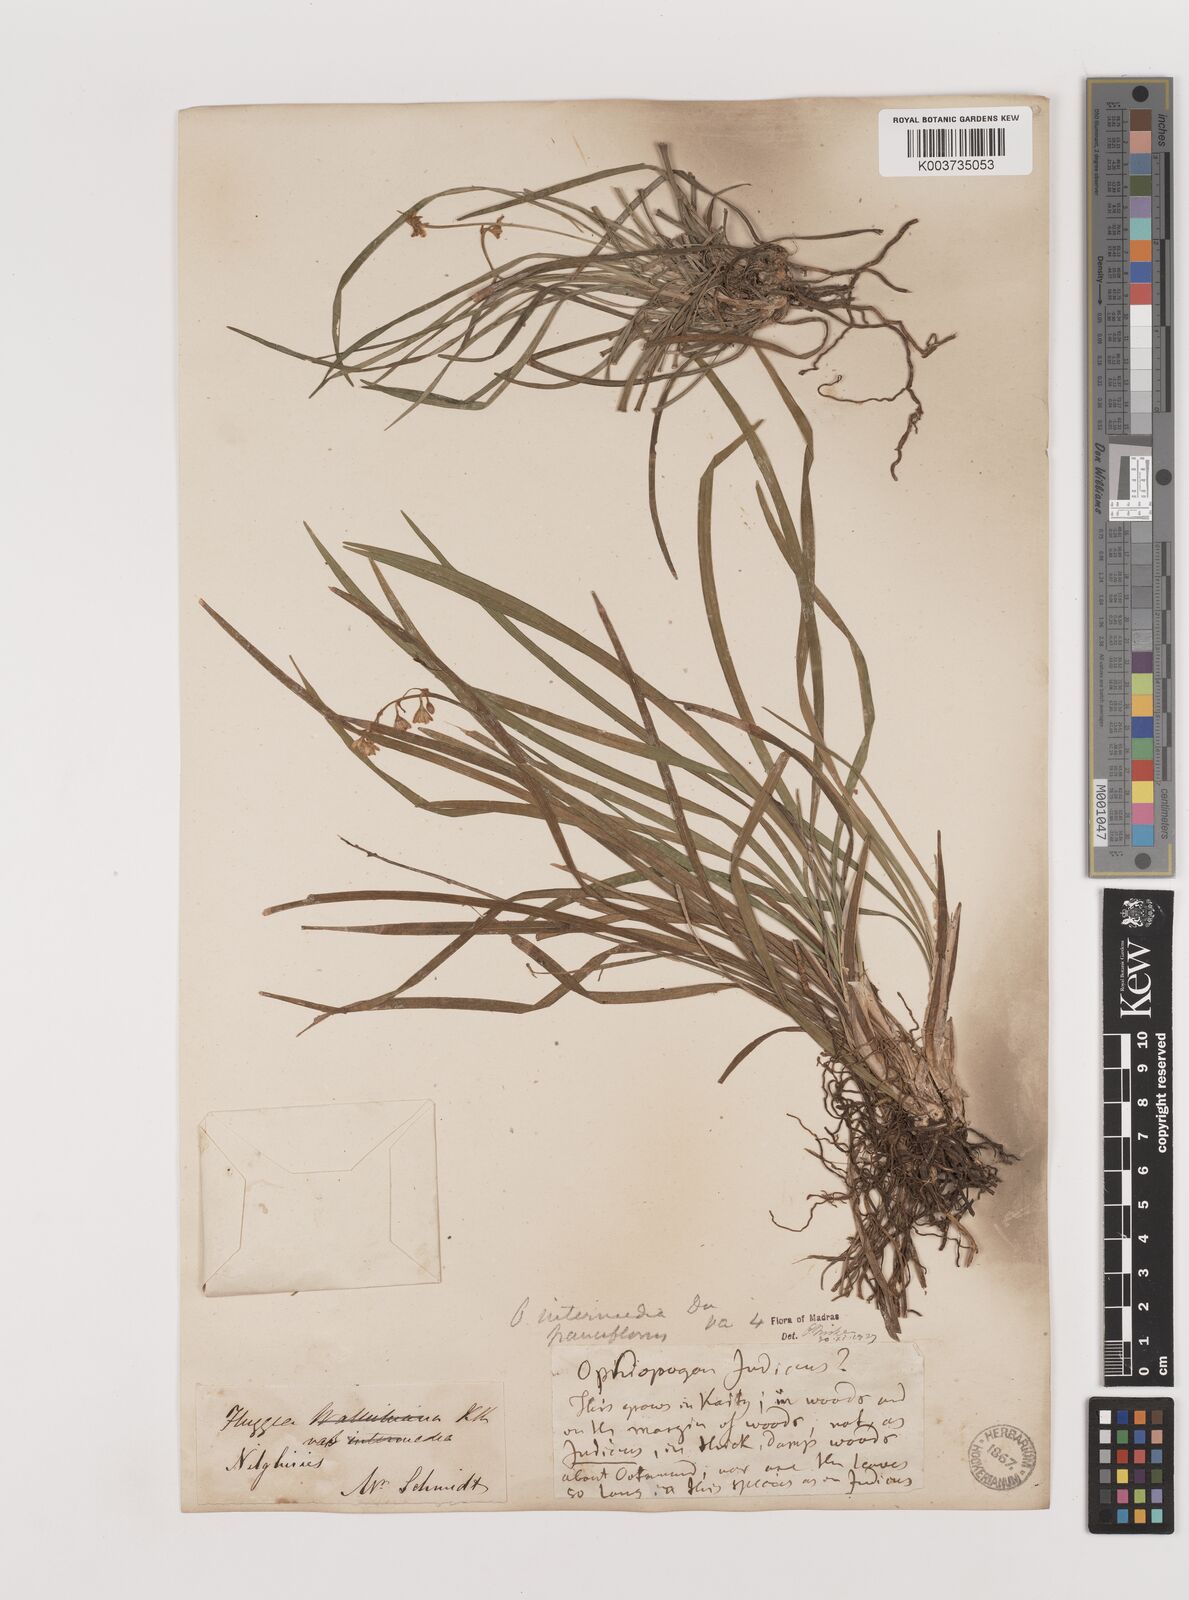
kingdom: Plantae
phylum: Tracheophyta
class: Liliopsida
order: Asparagales
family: Asparagaceae
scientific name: Asparagaceae
